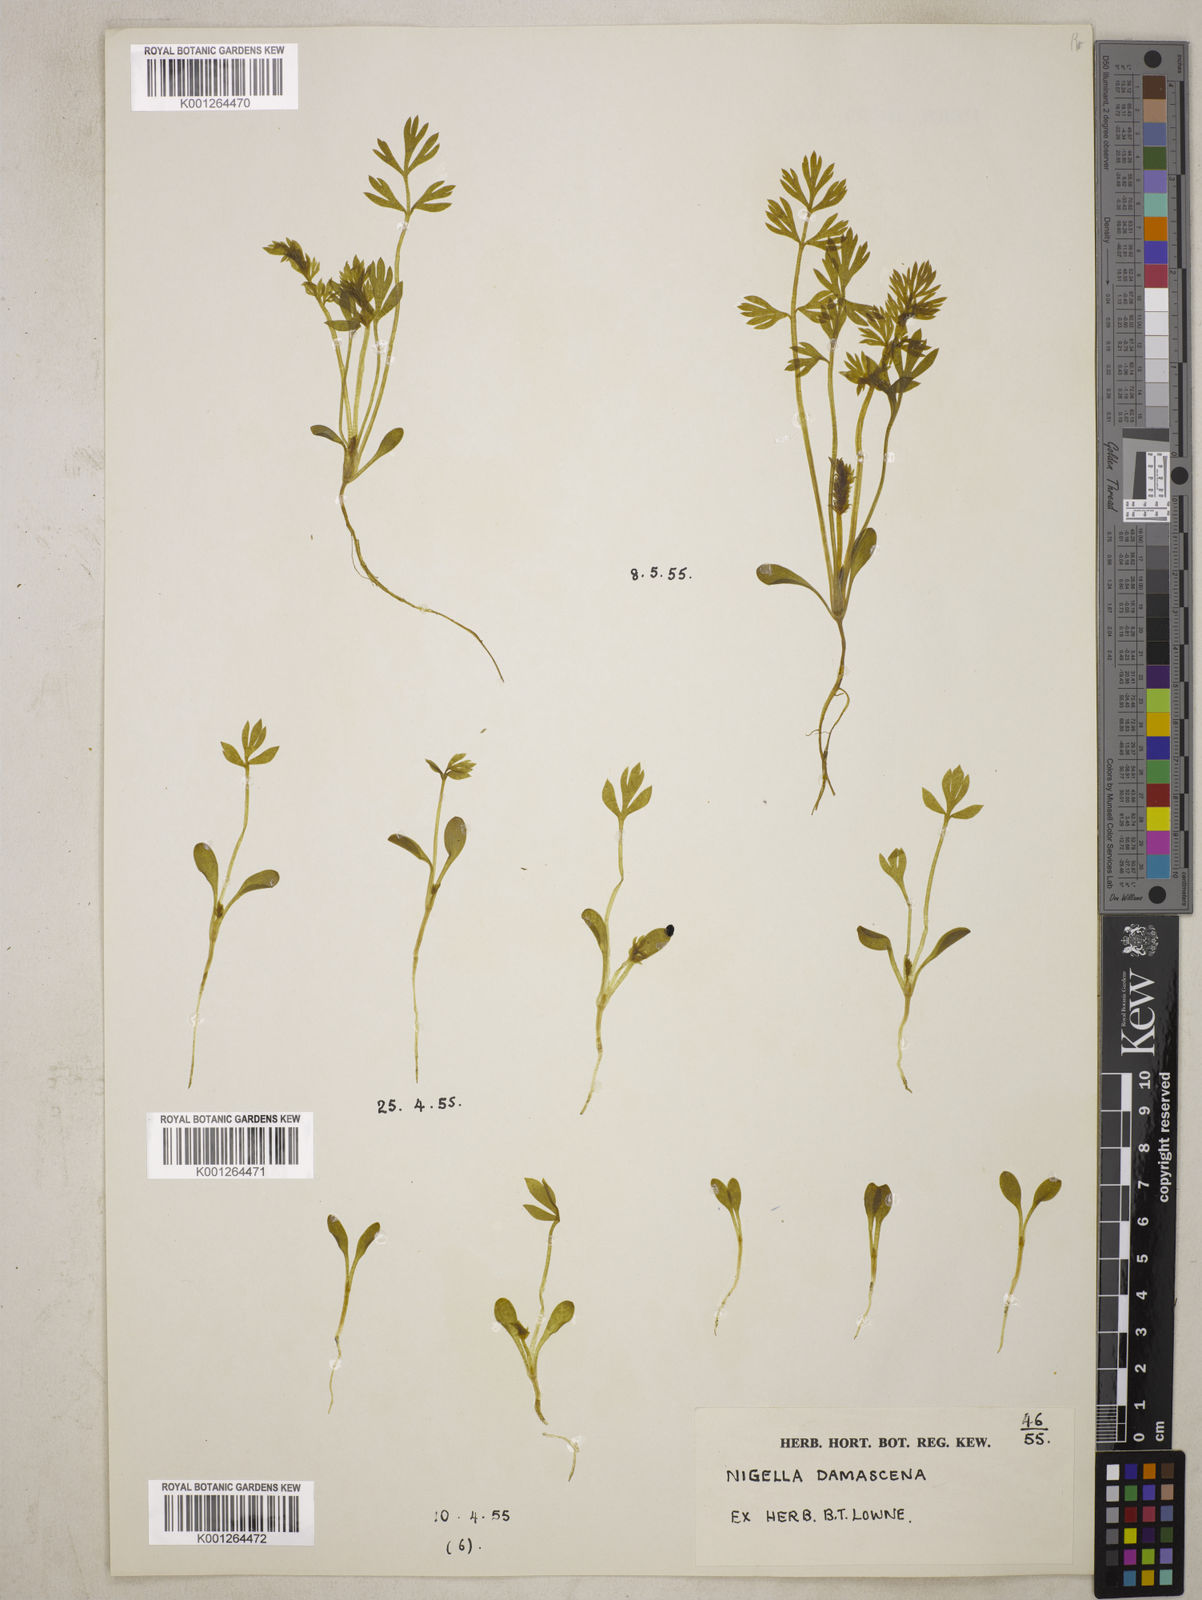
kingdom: Plantae
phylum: Tracheophyta
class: Magnoliopsida
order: Ranunculales
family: Ranunculaceae
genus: Nigella
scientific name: Nigella damascena
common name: Love-in-a-mist
